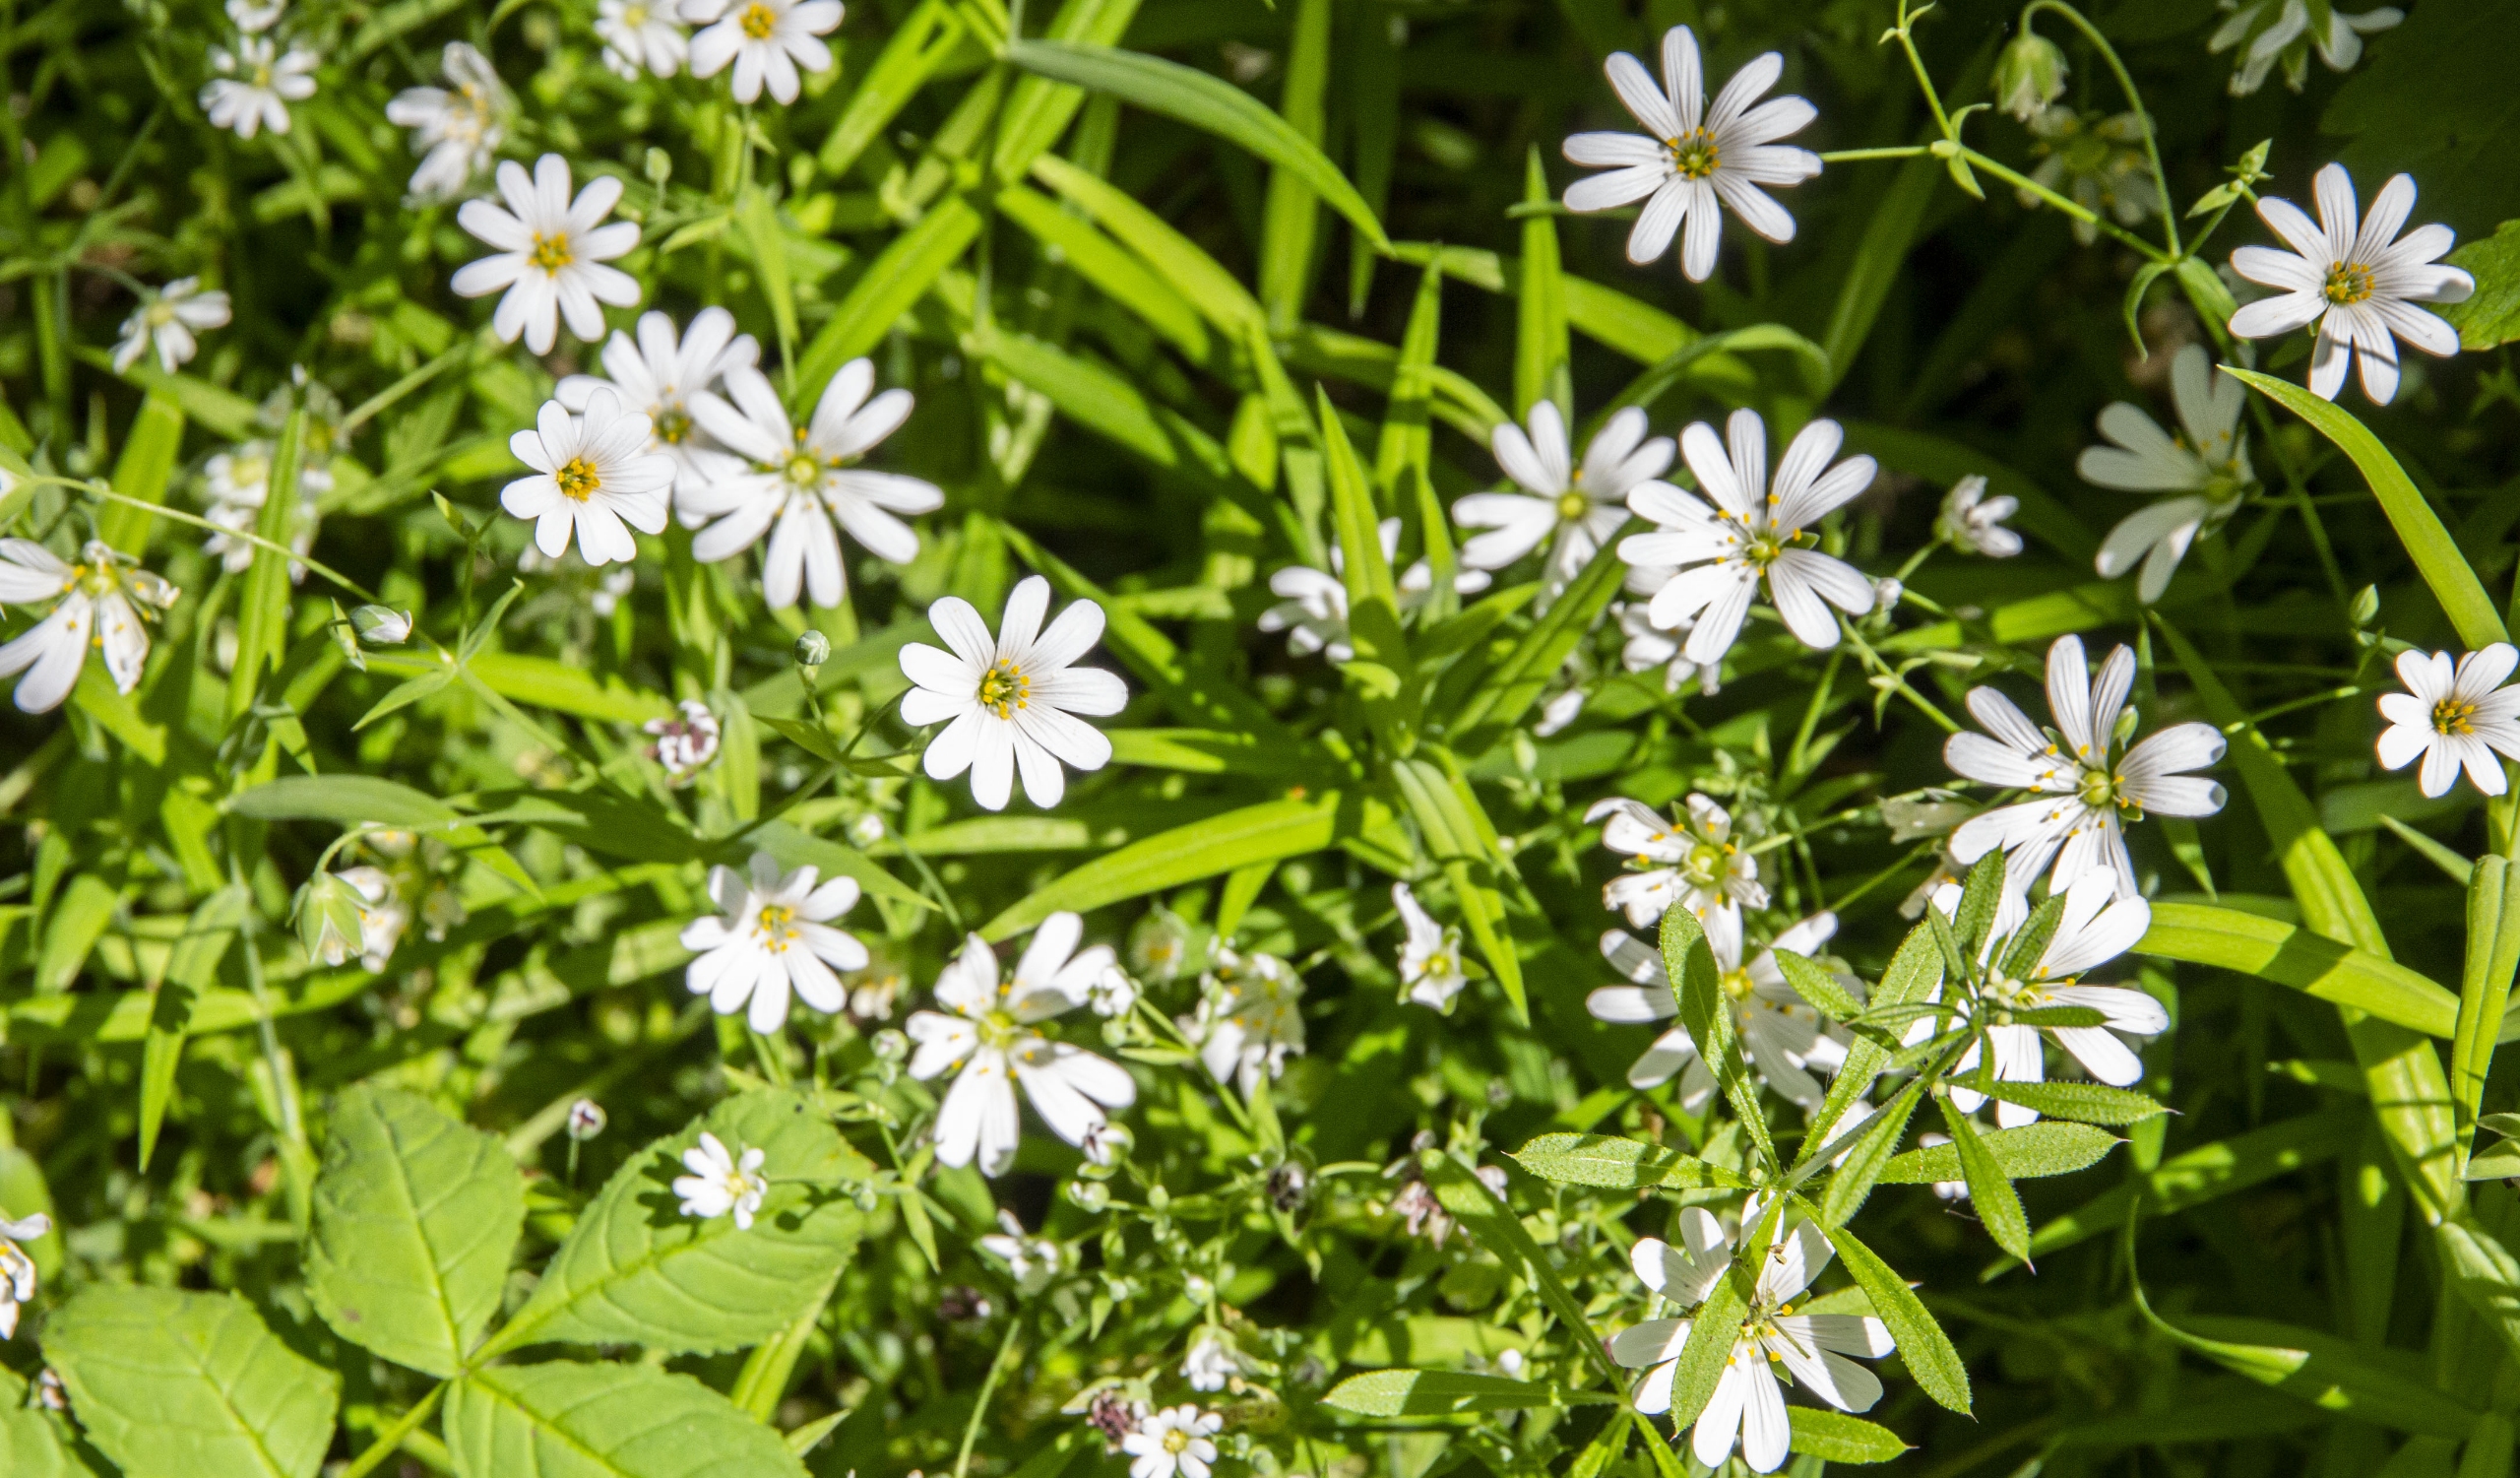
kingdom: Plantae
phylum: Tracheophyta
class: Magnoliopsida
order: Caryophyllales
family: Caryophyllaceae
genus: Rabelera
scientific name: Rabelera holostea
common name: Stor fladstjerne
